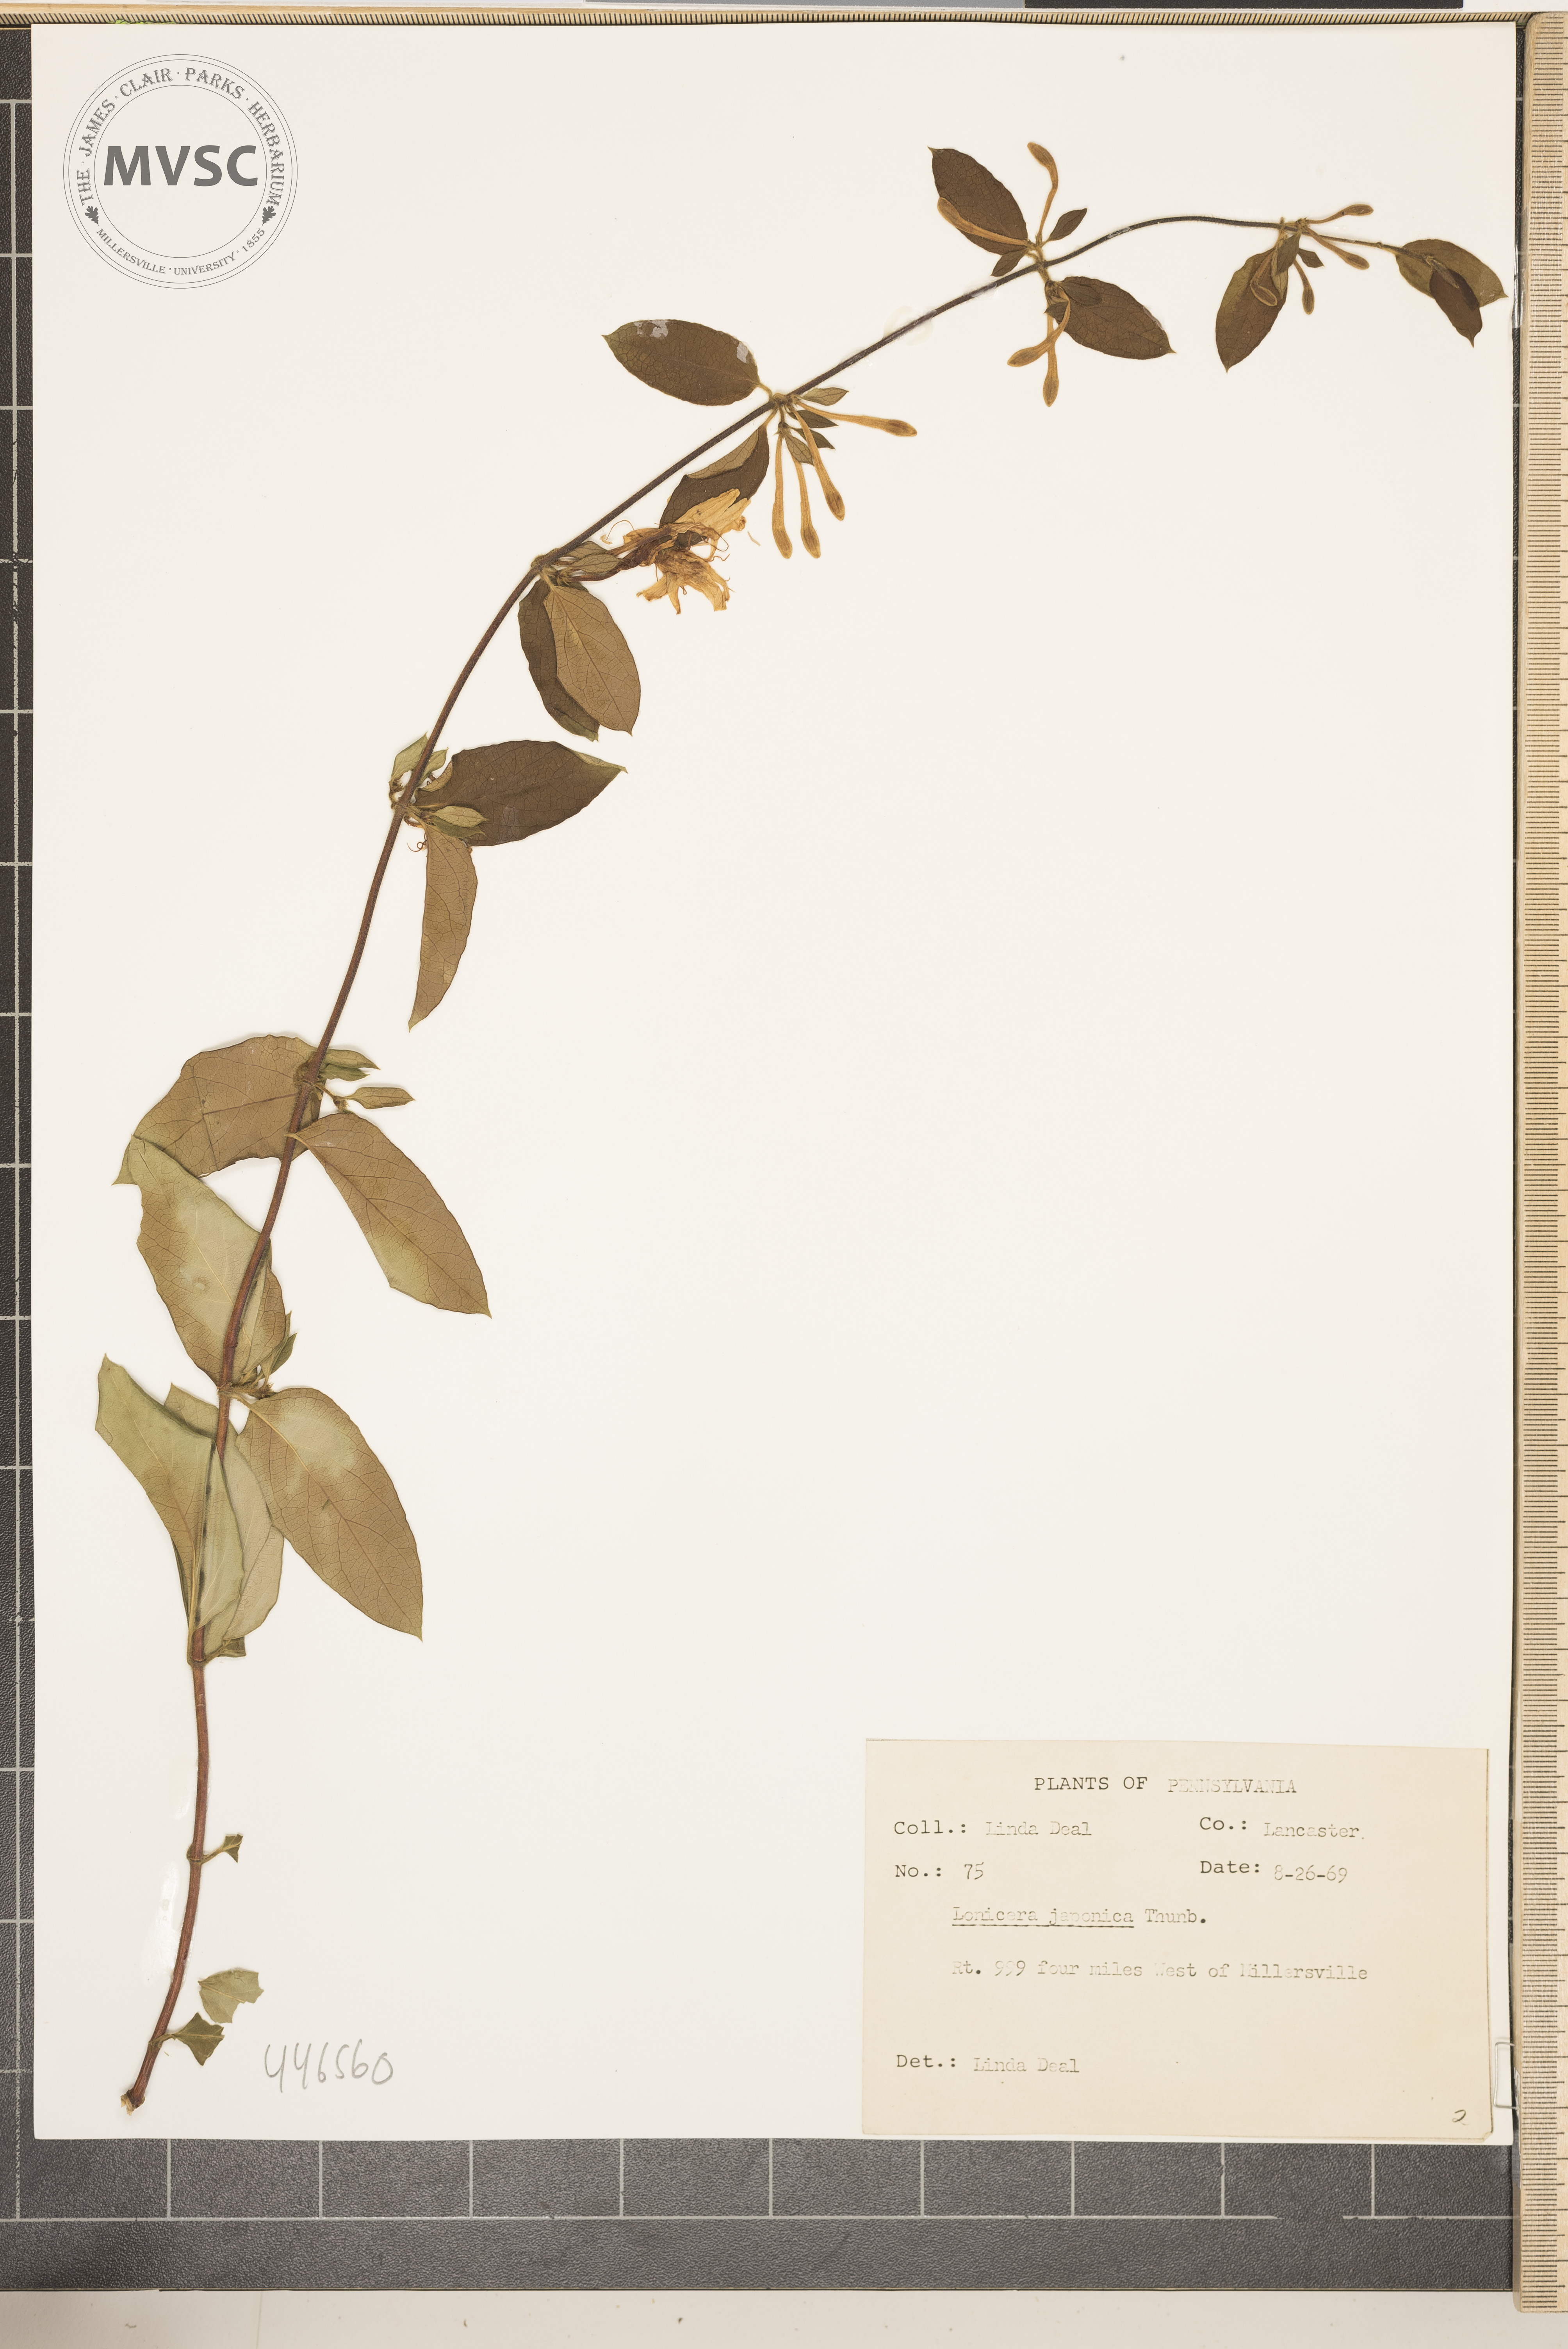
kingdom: Plantae
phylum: Tracheophyta
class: Magnoliopsida
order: Dipsacales
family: Caprifoliaceae
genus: Lonicera
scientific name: Lonicera japonica
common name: Japanese honeysuckle
